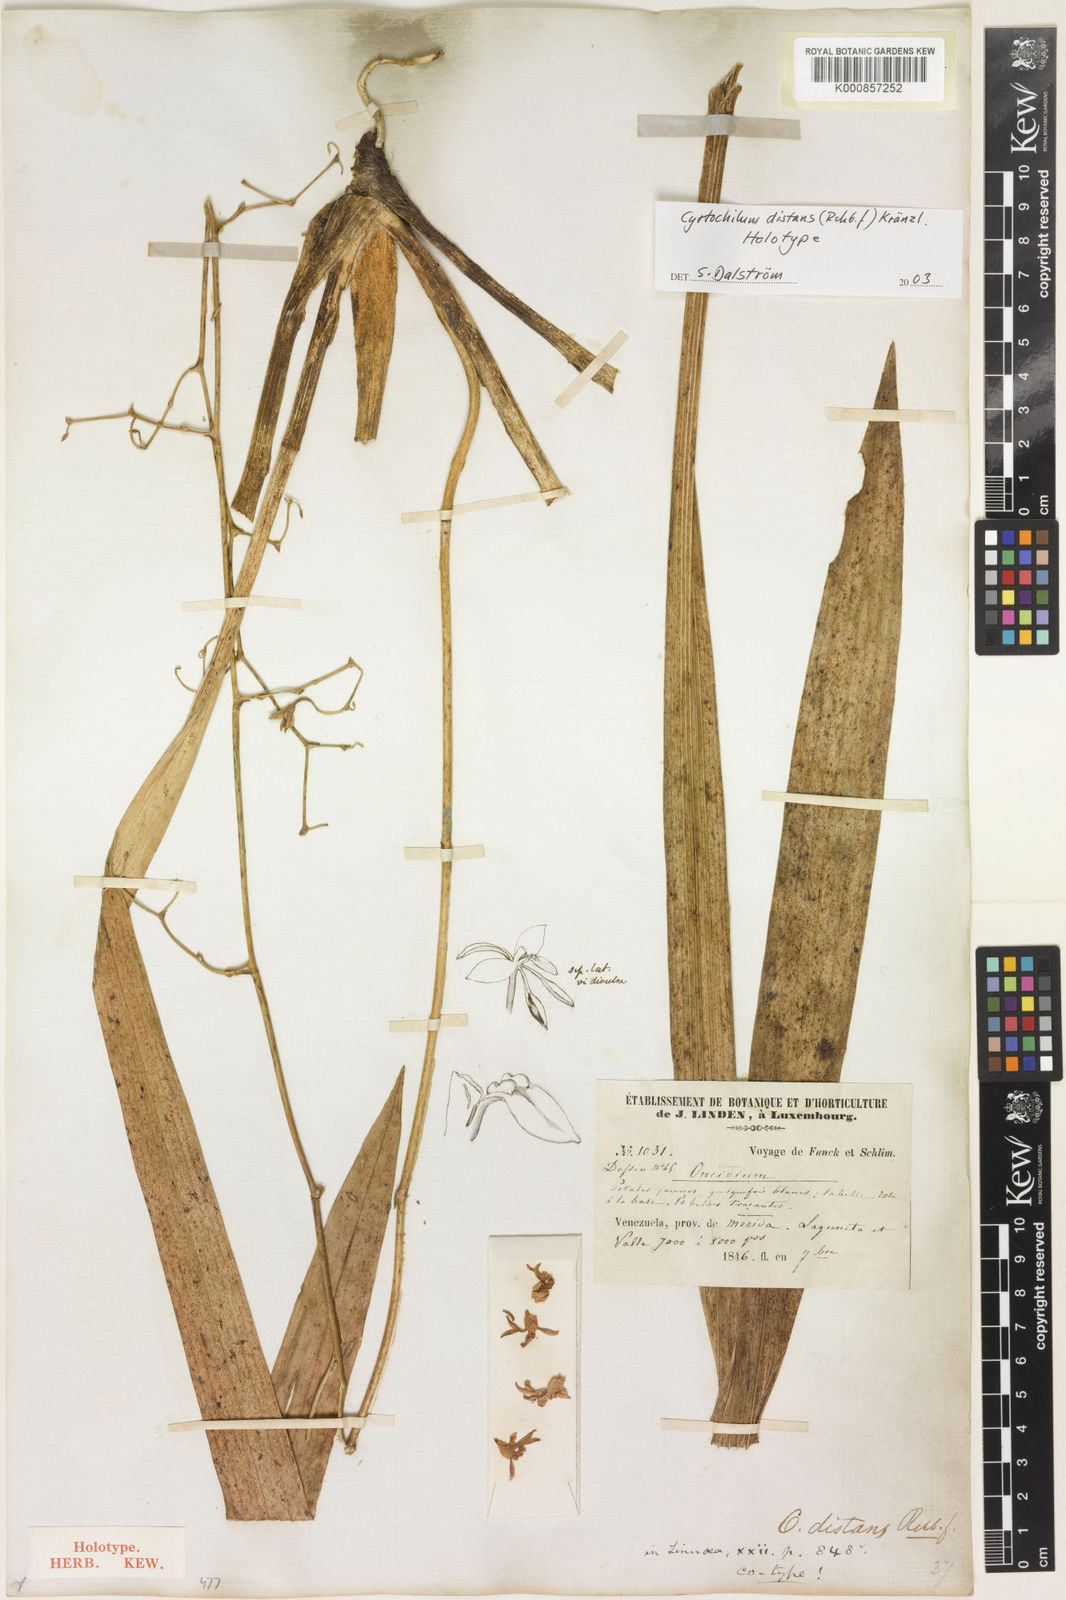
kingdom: Plantae
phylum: Tracheophyta
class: Liliopsida
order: Asparagales
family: Orchidaceae
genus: Cyrtochilum
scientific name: Cyrtochilum distans
